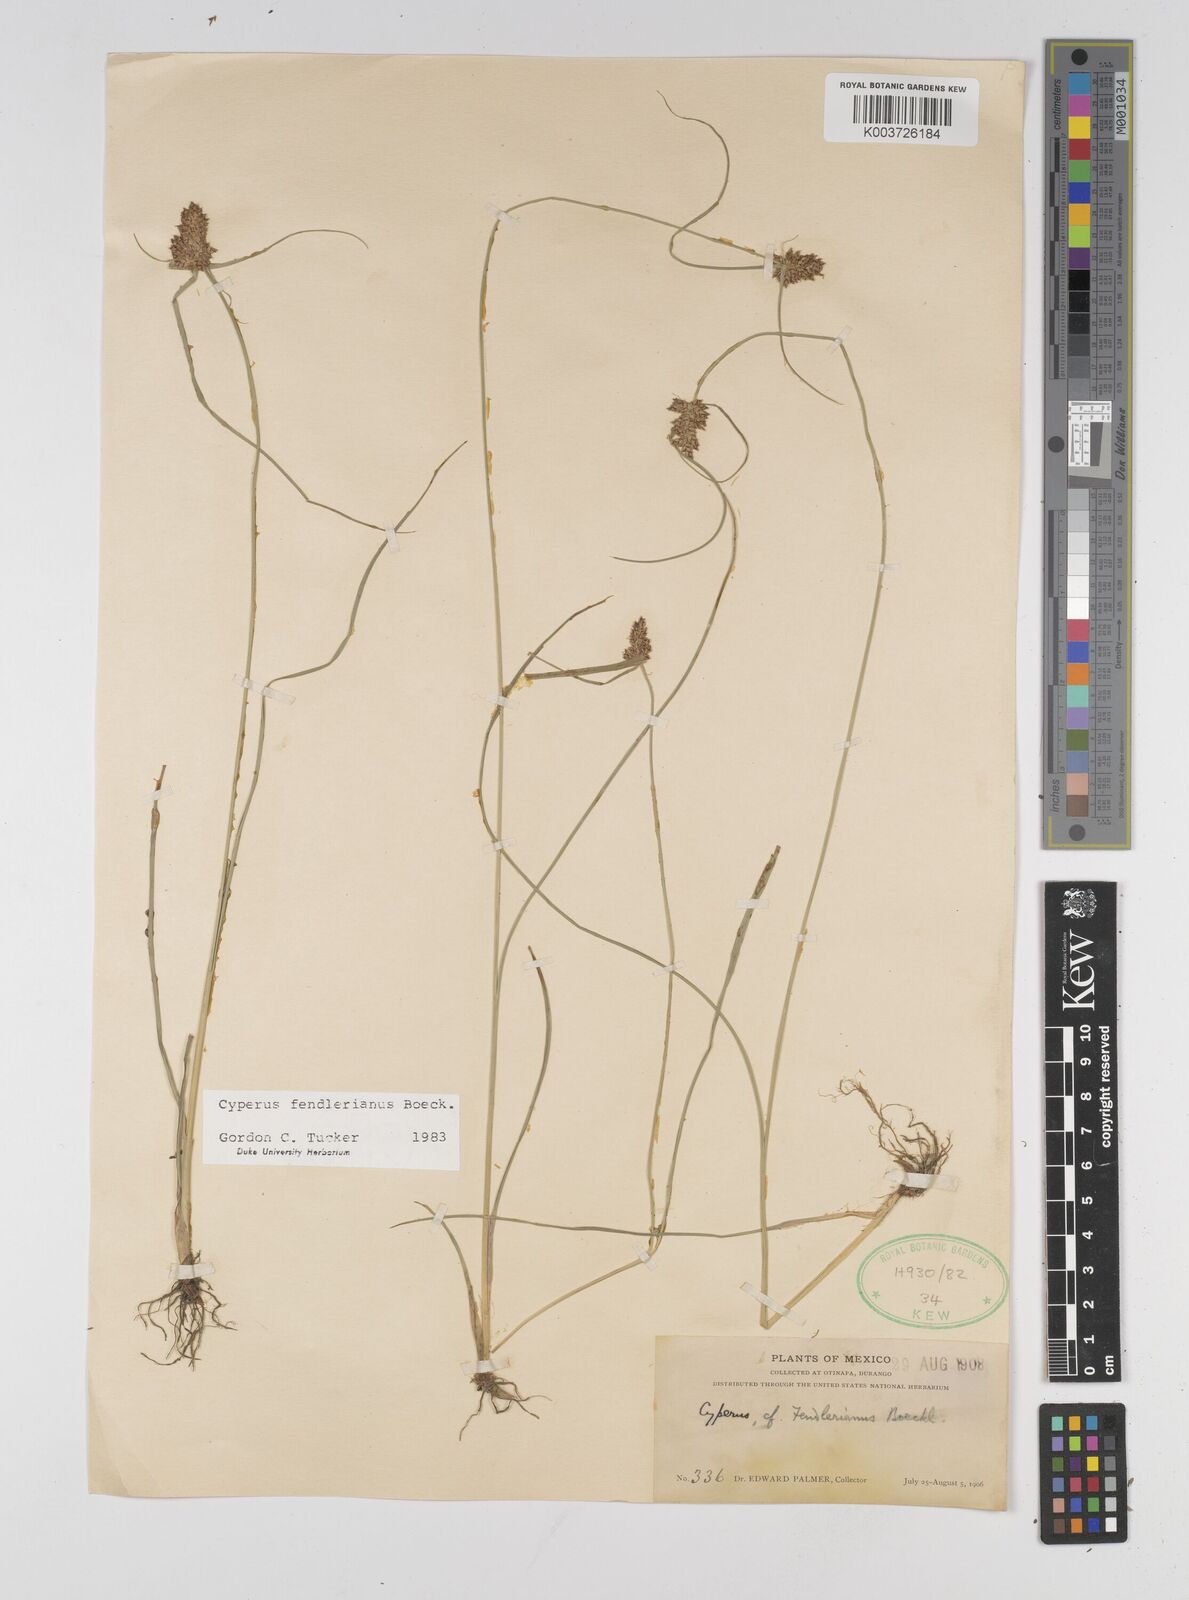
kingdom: Plantae
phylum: Tracheophyta
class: Liliopsida
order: Poales
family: Cyperaceae
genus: Cyperus
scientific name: Cyperus fendlerianus
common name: Fendler flat sedge
